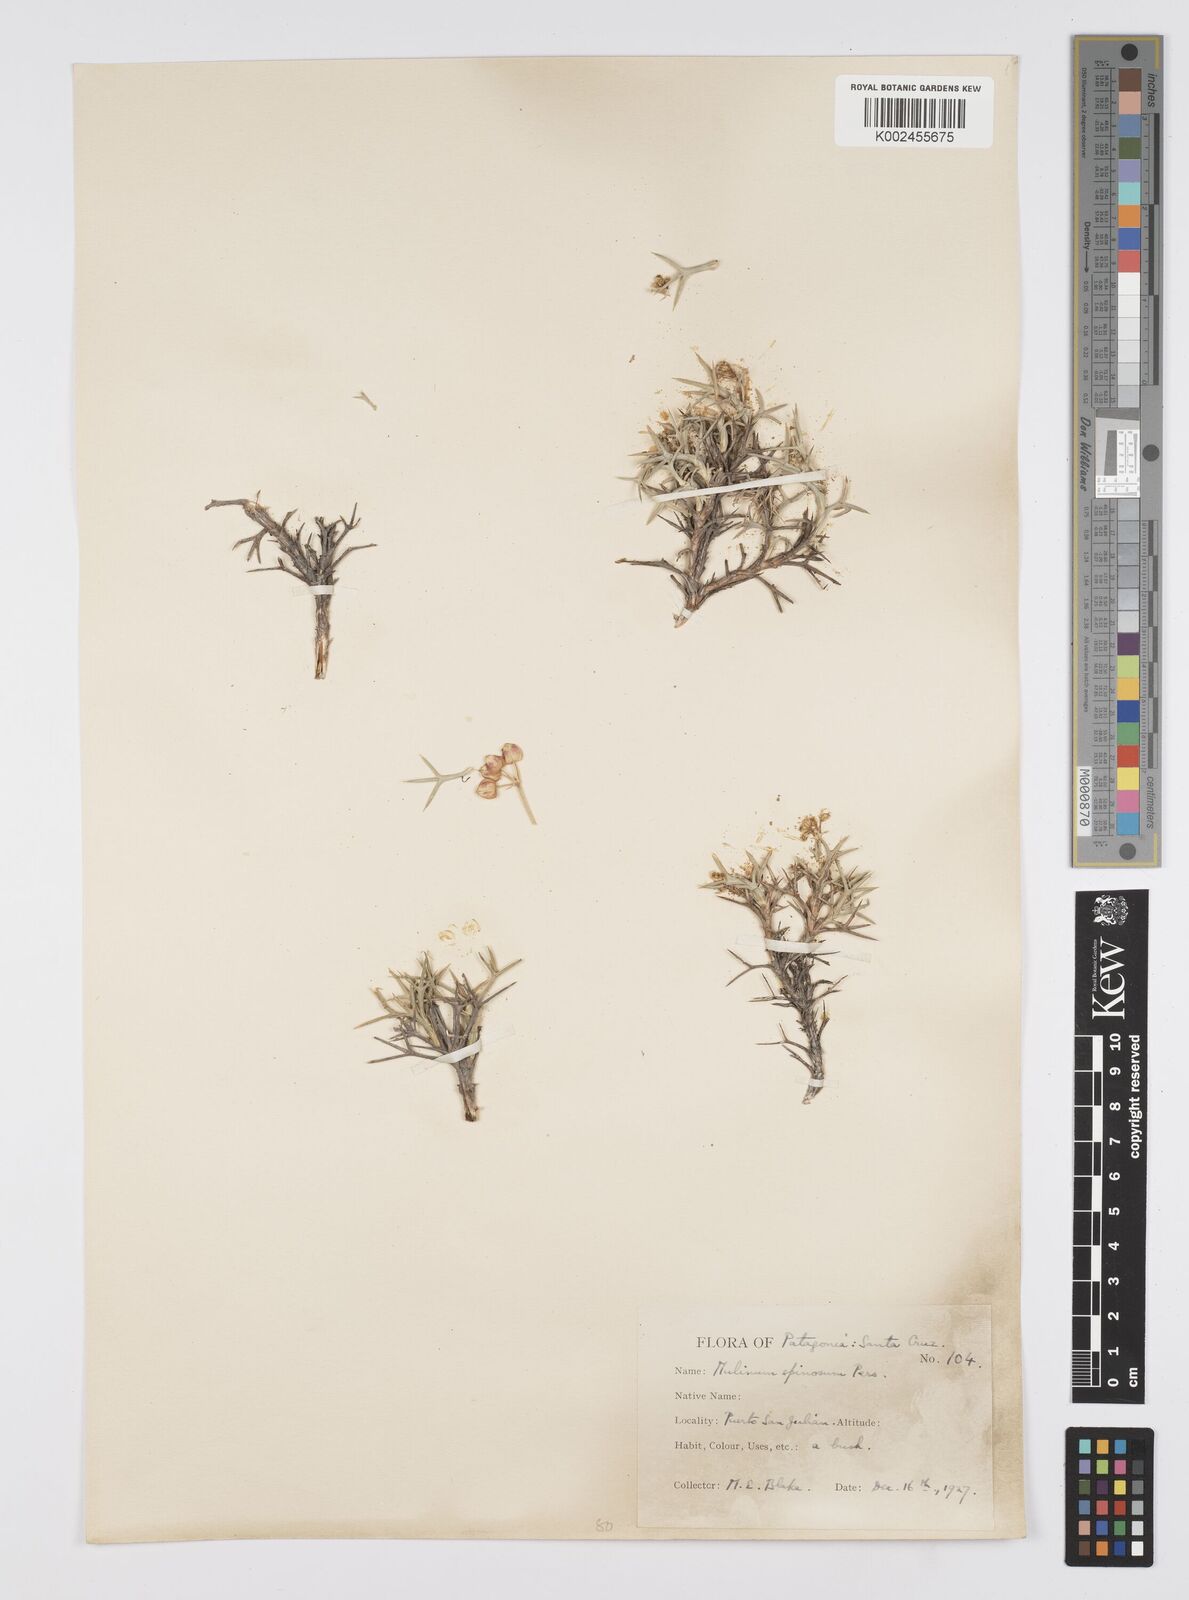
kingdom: Plantae
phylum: Tracheophyta
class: Magnoliopsida
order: Apiales
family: Apiaceae
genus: Azorella
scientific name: Azorella prolifera
